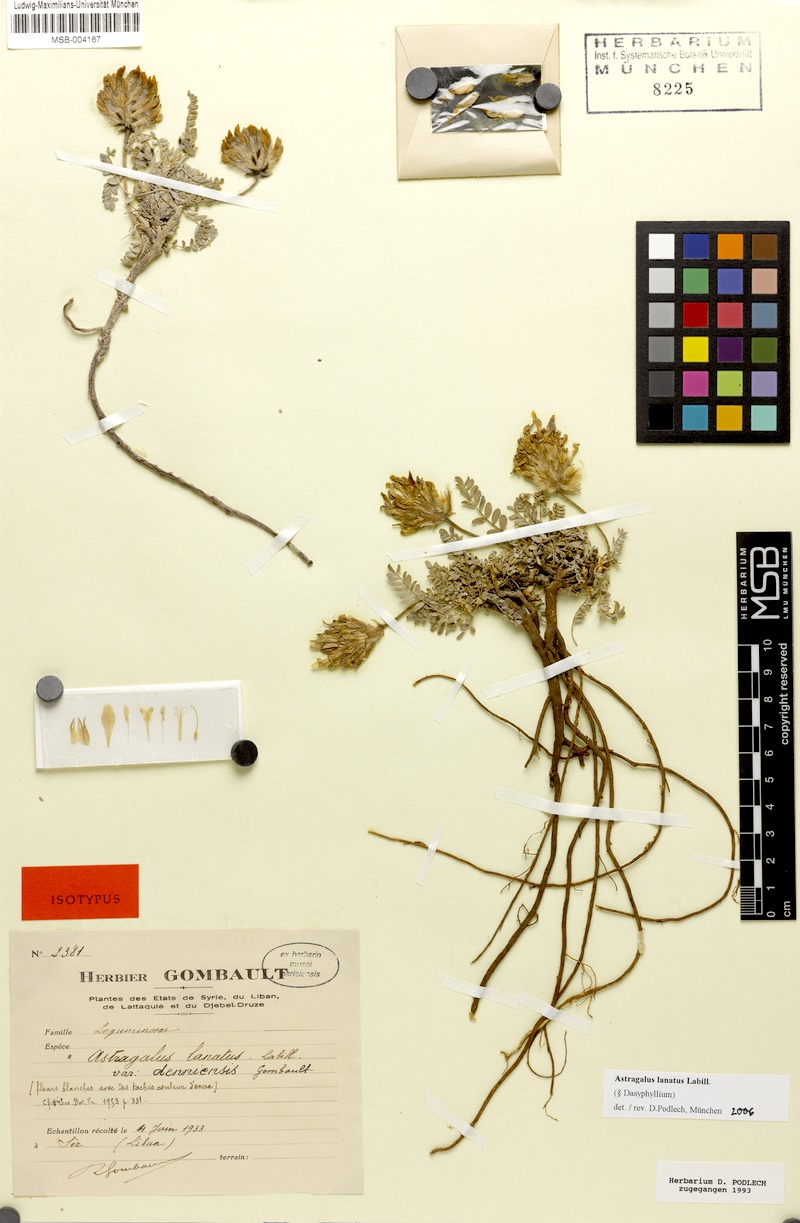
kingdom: Plantae
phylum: Tracheophyta
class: Magnoliopsida
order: Fabales
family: Fabaceae
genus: Astragalus
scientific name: Astragalus lanatus
